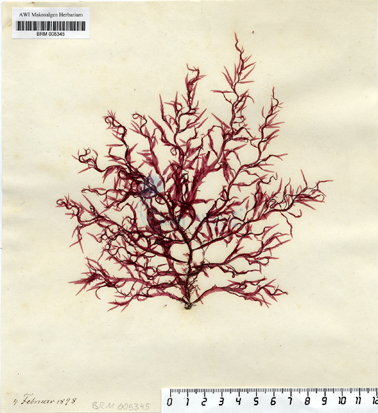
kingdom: Plantae
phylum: Rhodophyta
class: Florideophyceae
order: Ceramiales
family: Delesseriaceae
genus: Hypoglossum
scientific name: Hypoglossum hypoglossoides
